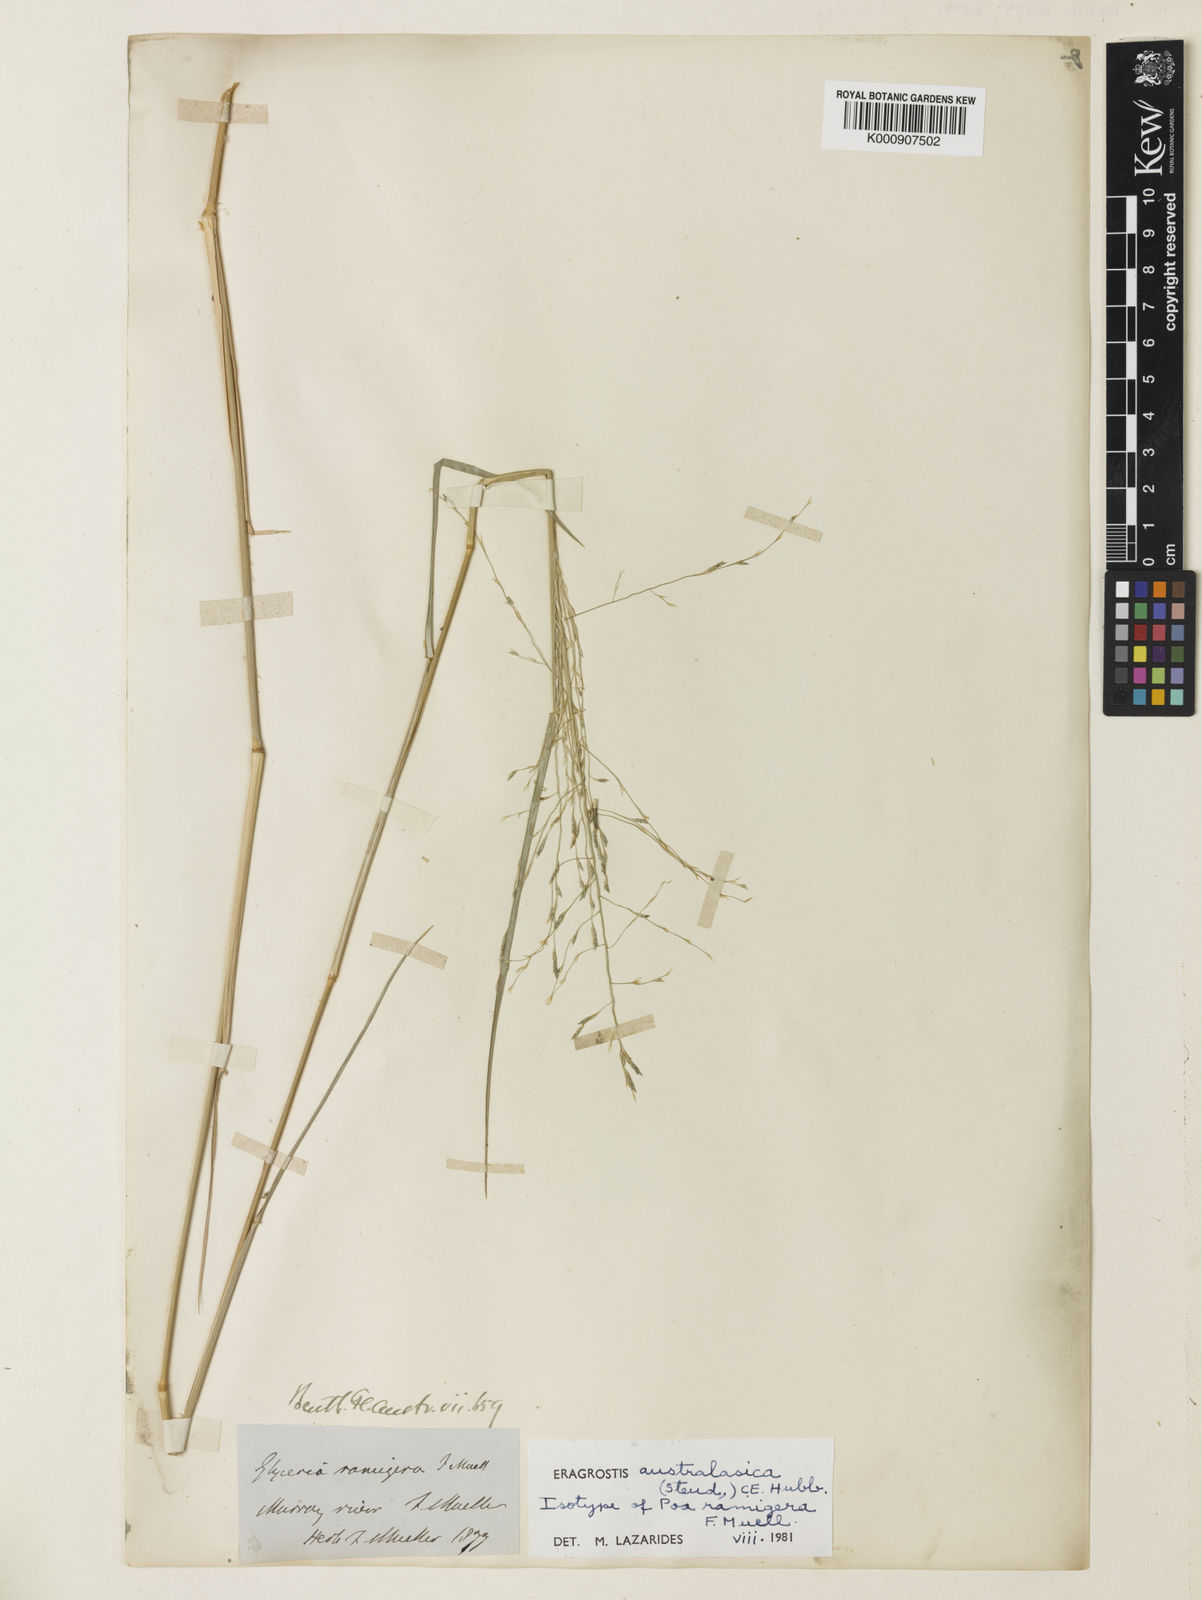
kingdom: Plantae
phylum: Tracheophyta
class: Liliopsida
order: Poales
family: Poaceae
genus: Sporobolus
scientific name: Sporobolus ramigerus
